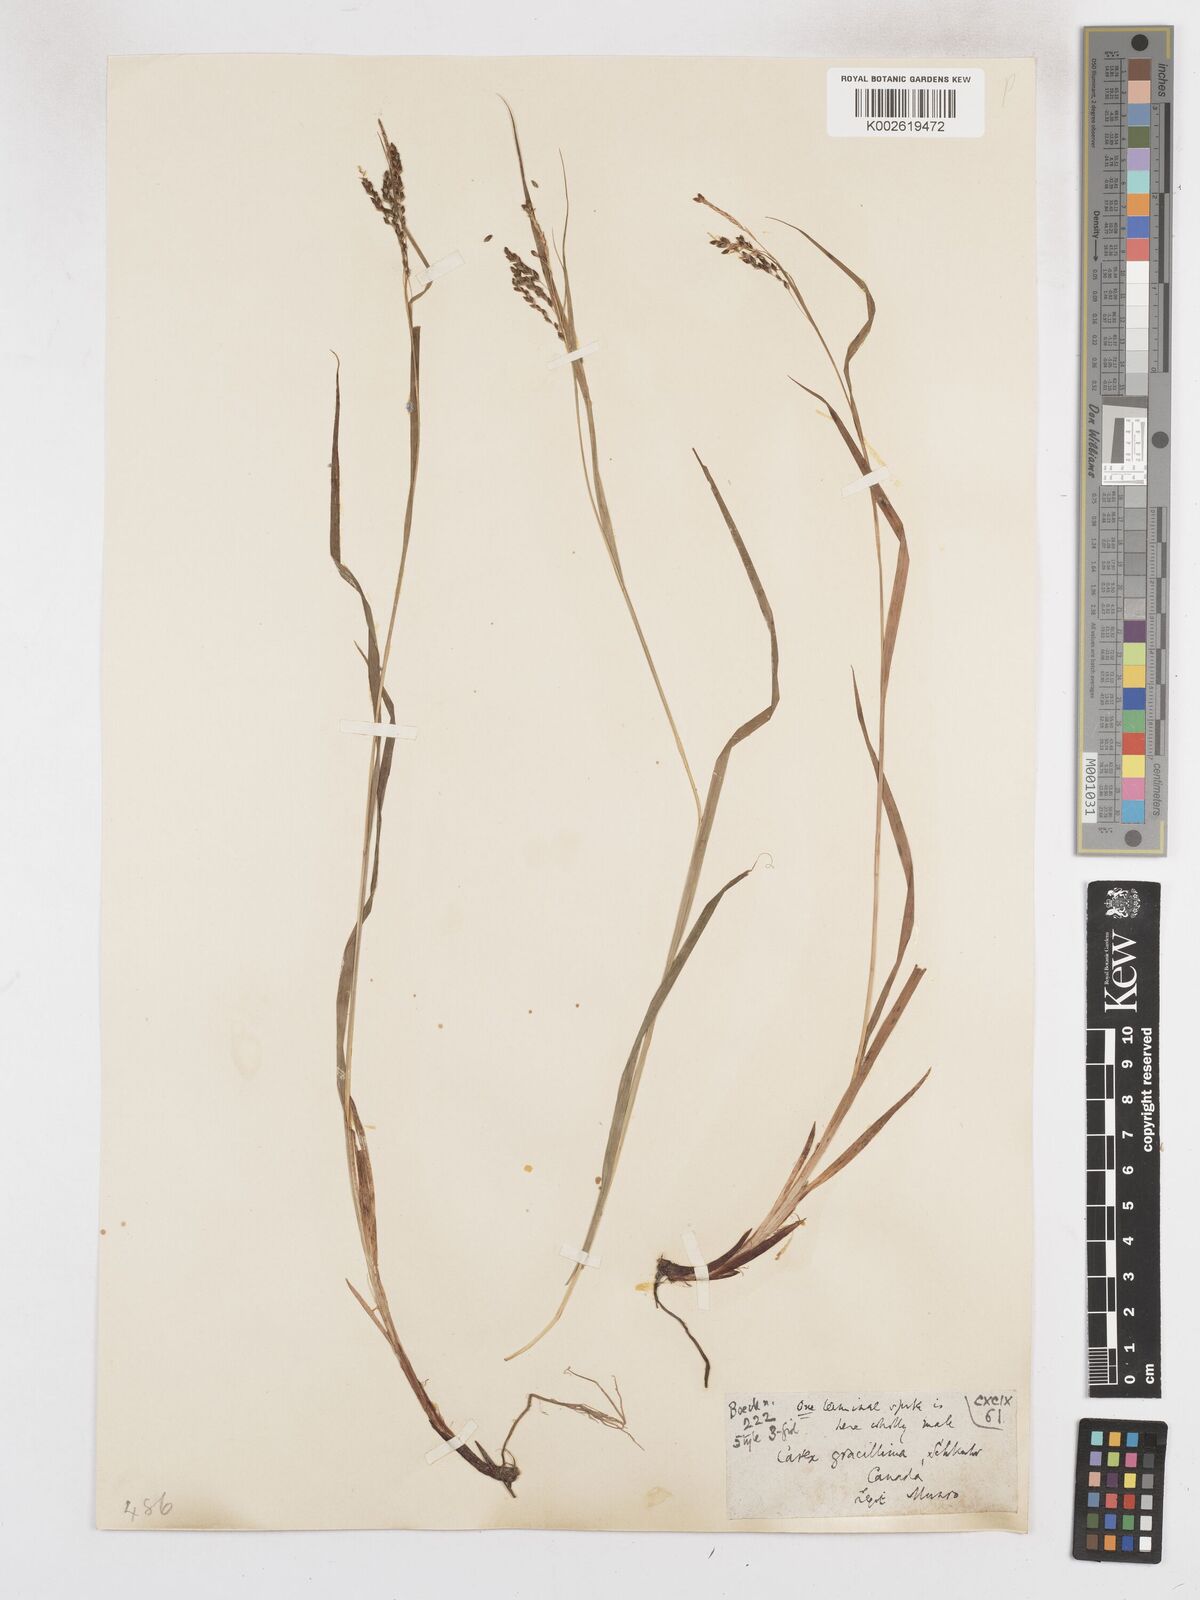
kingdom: Plantae
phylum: Tracheophyta
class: Liliopsida
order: Poales
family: Cyperaceae
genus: Carex
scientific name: Carex gracillima
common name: Graceful sedge
